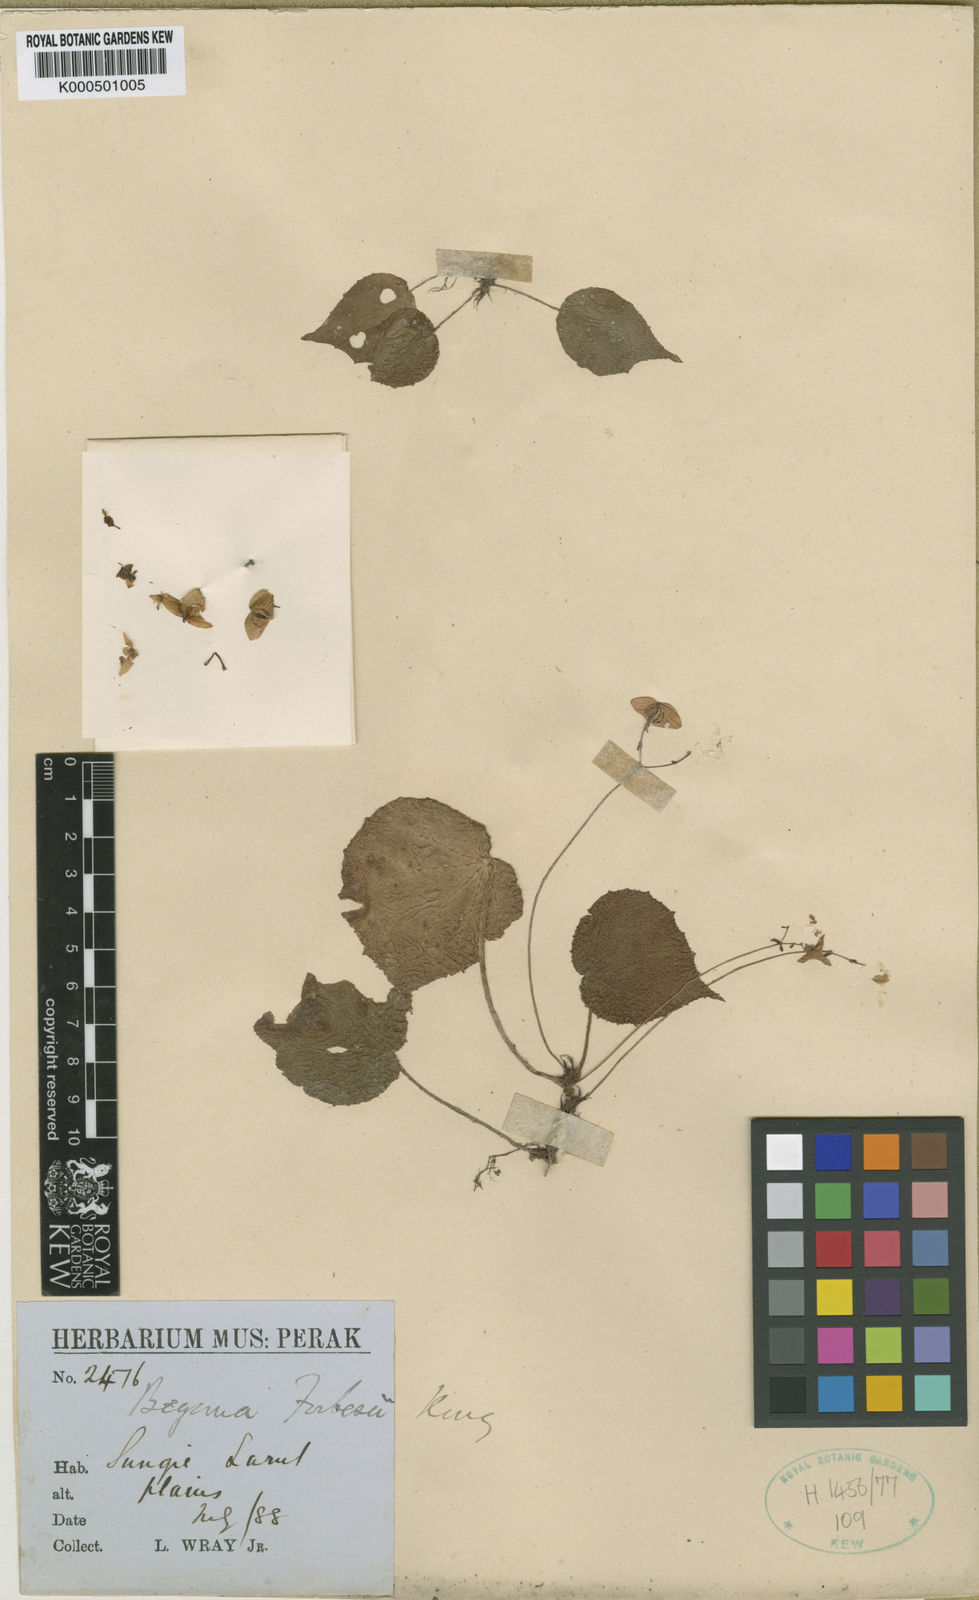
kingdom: Plantae
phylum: Tracheophyta
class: Magnoliopsida
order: Cucurbitales
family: Begoniaceae
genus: Begonia
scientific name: Begonia forbesii
